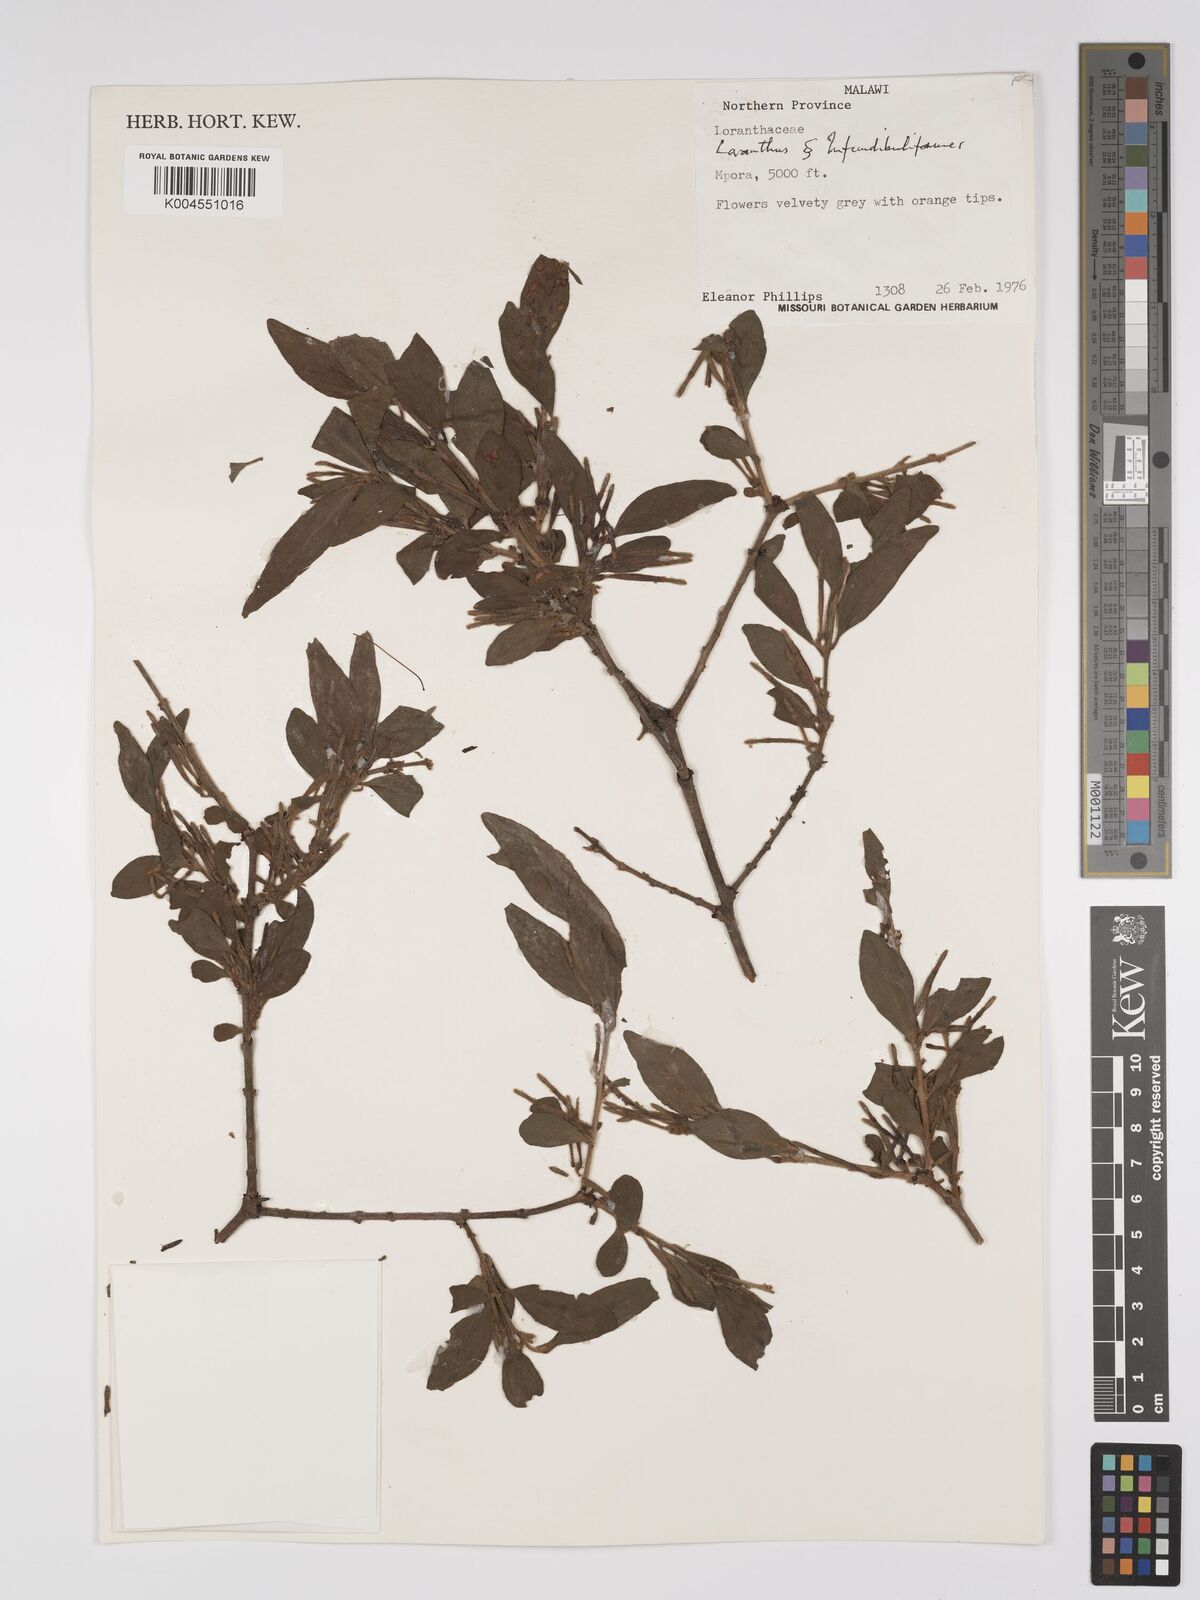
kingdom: Plantae
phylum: Tracheophyta
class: Magnoliopsida
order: Santalales
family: Loranthaceae
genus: Agelanthus
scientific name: Agelanthus molleri
